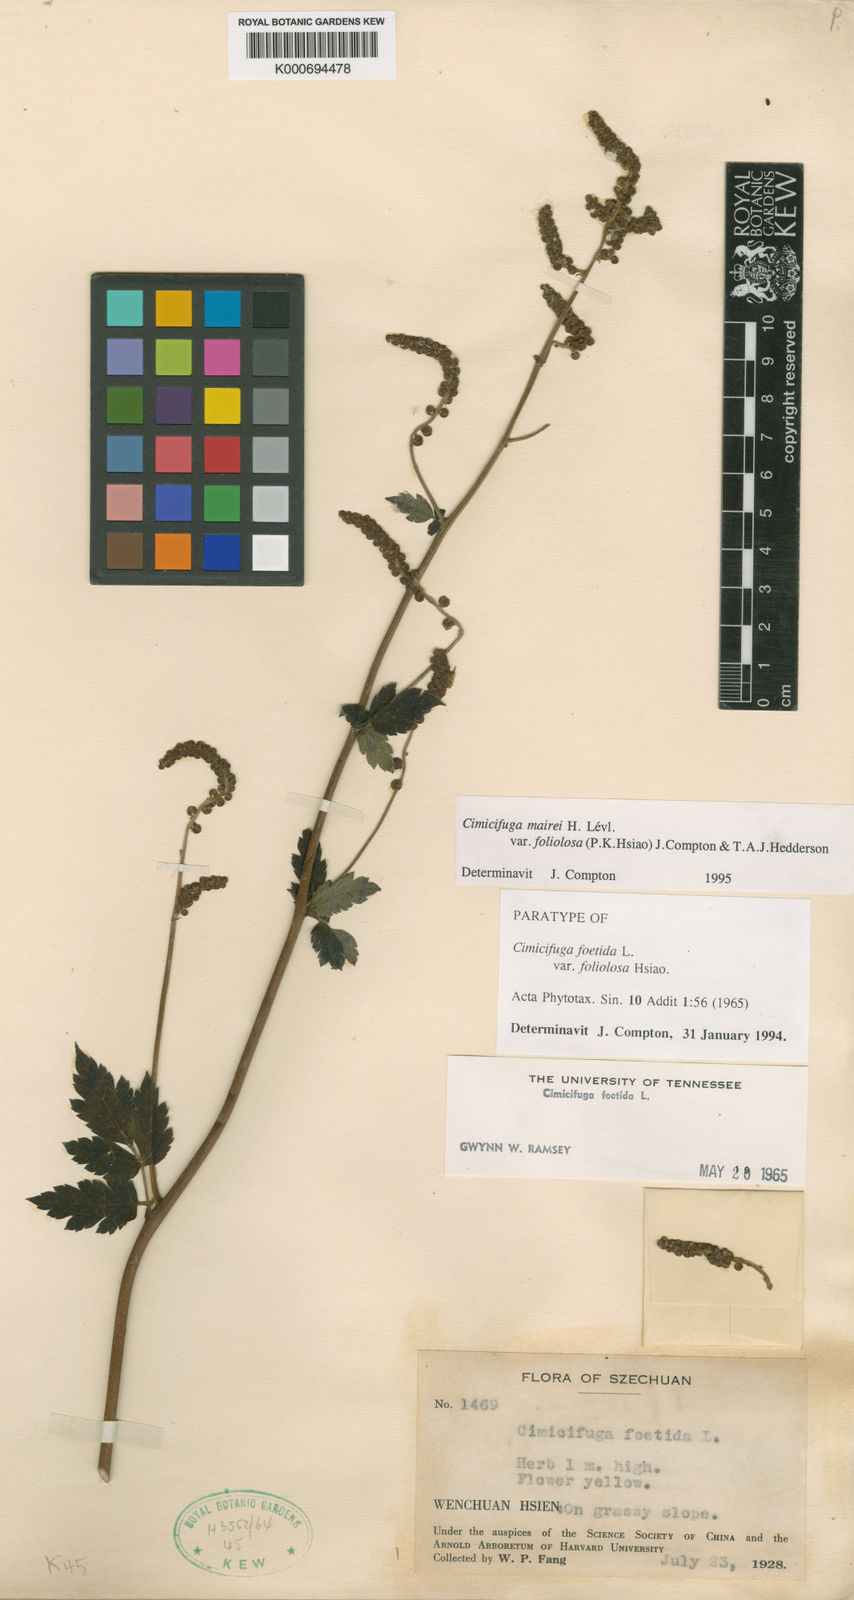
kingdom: Plantae
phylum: Tracheophyta
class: Magnoliopsida
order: Ranunculales
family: Ranunculaceae
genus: Actaea
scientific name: Actaea cimicifuga
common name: Chinese cimicifuga
